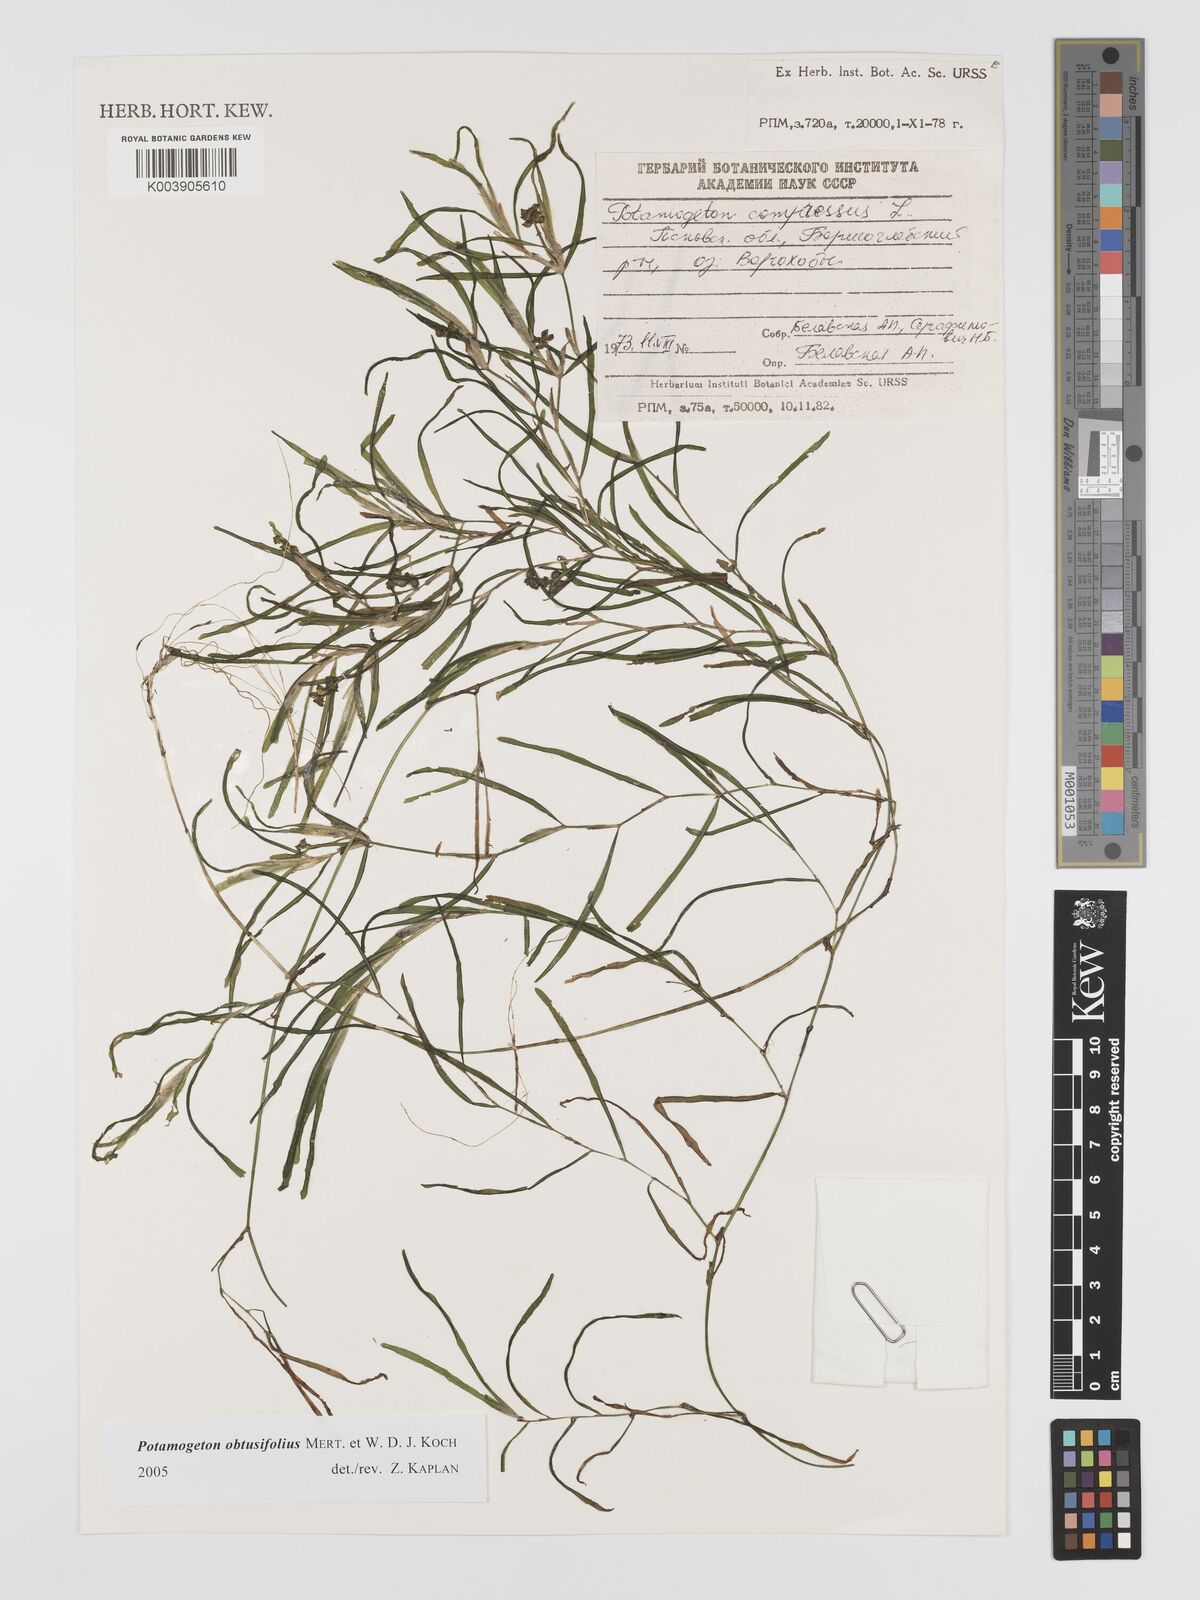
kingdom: Plantae
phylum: Tracheophyta
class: Liliopsida
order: Alismatales
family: Potamogetonaceae
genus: Potamogeton
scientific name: Potamogeton obtusifolius
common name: Blunt-leaved pondweed
